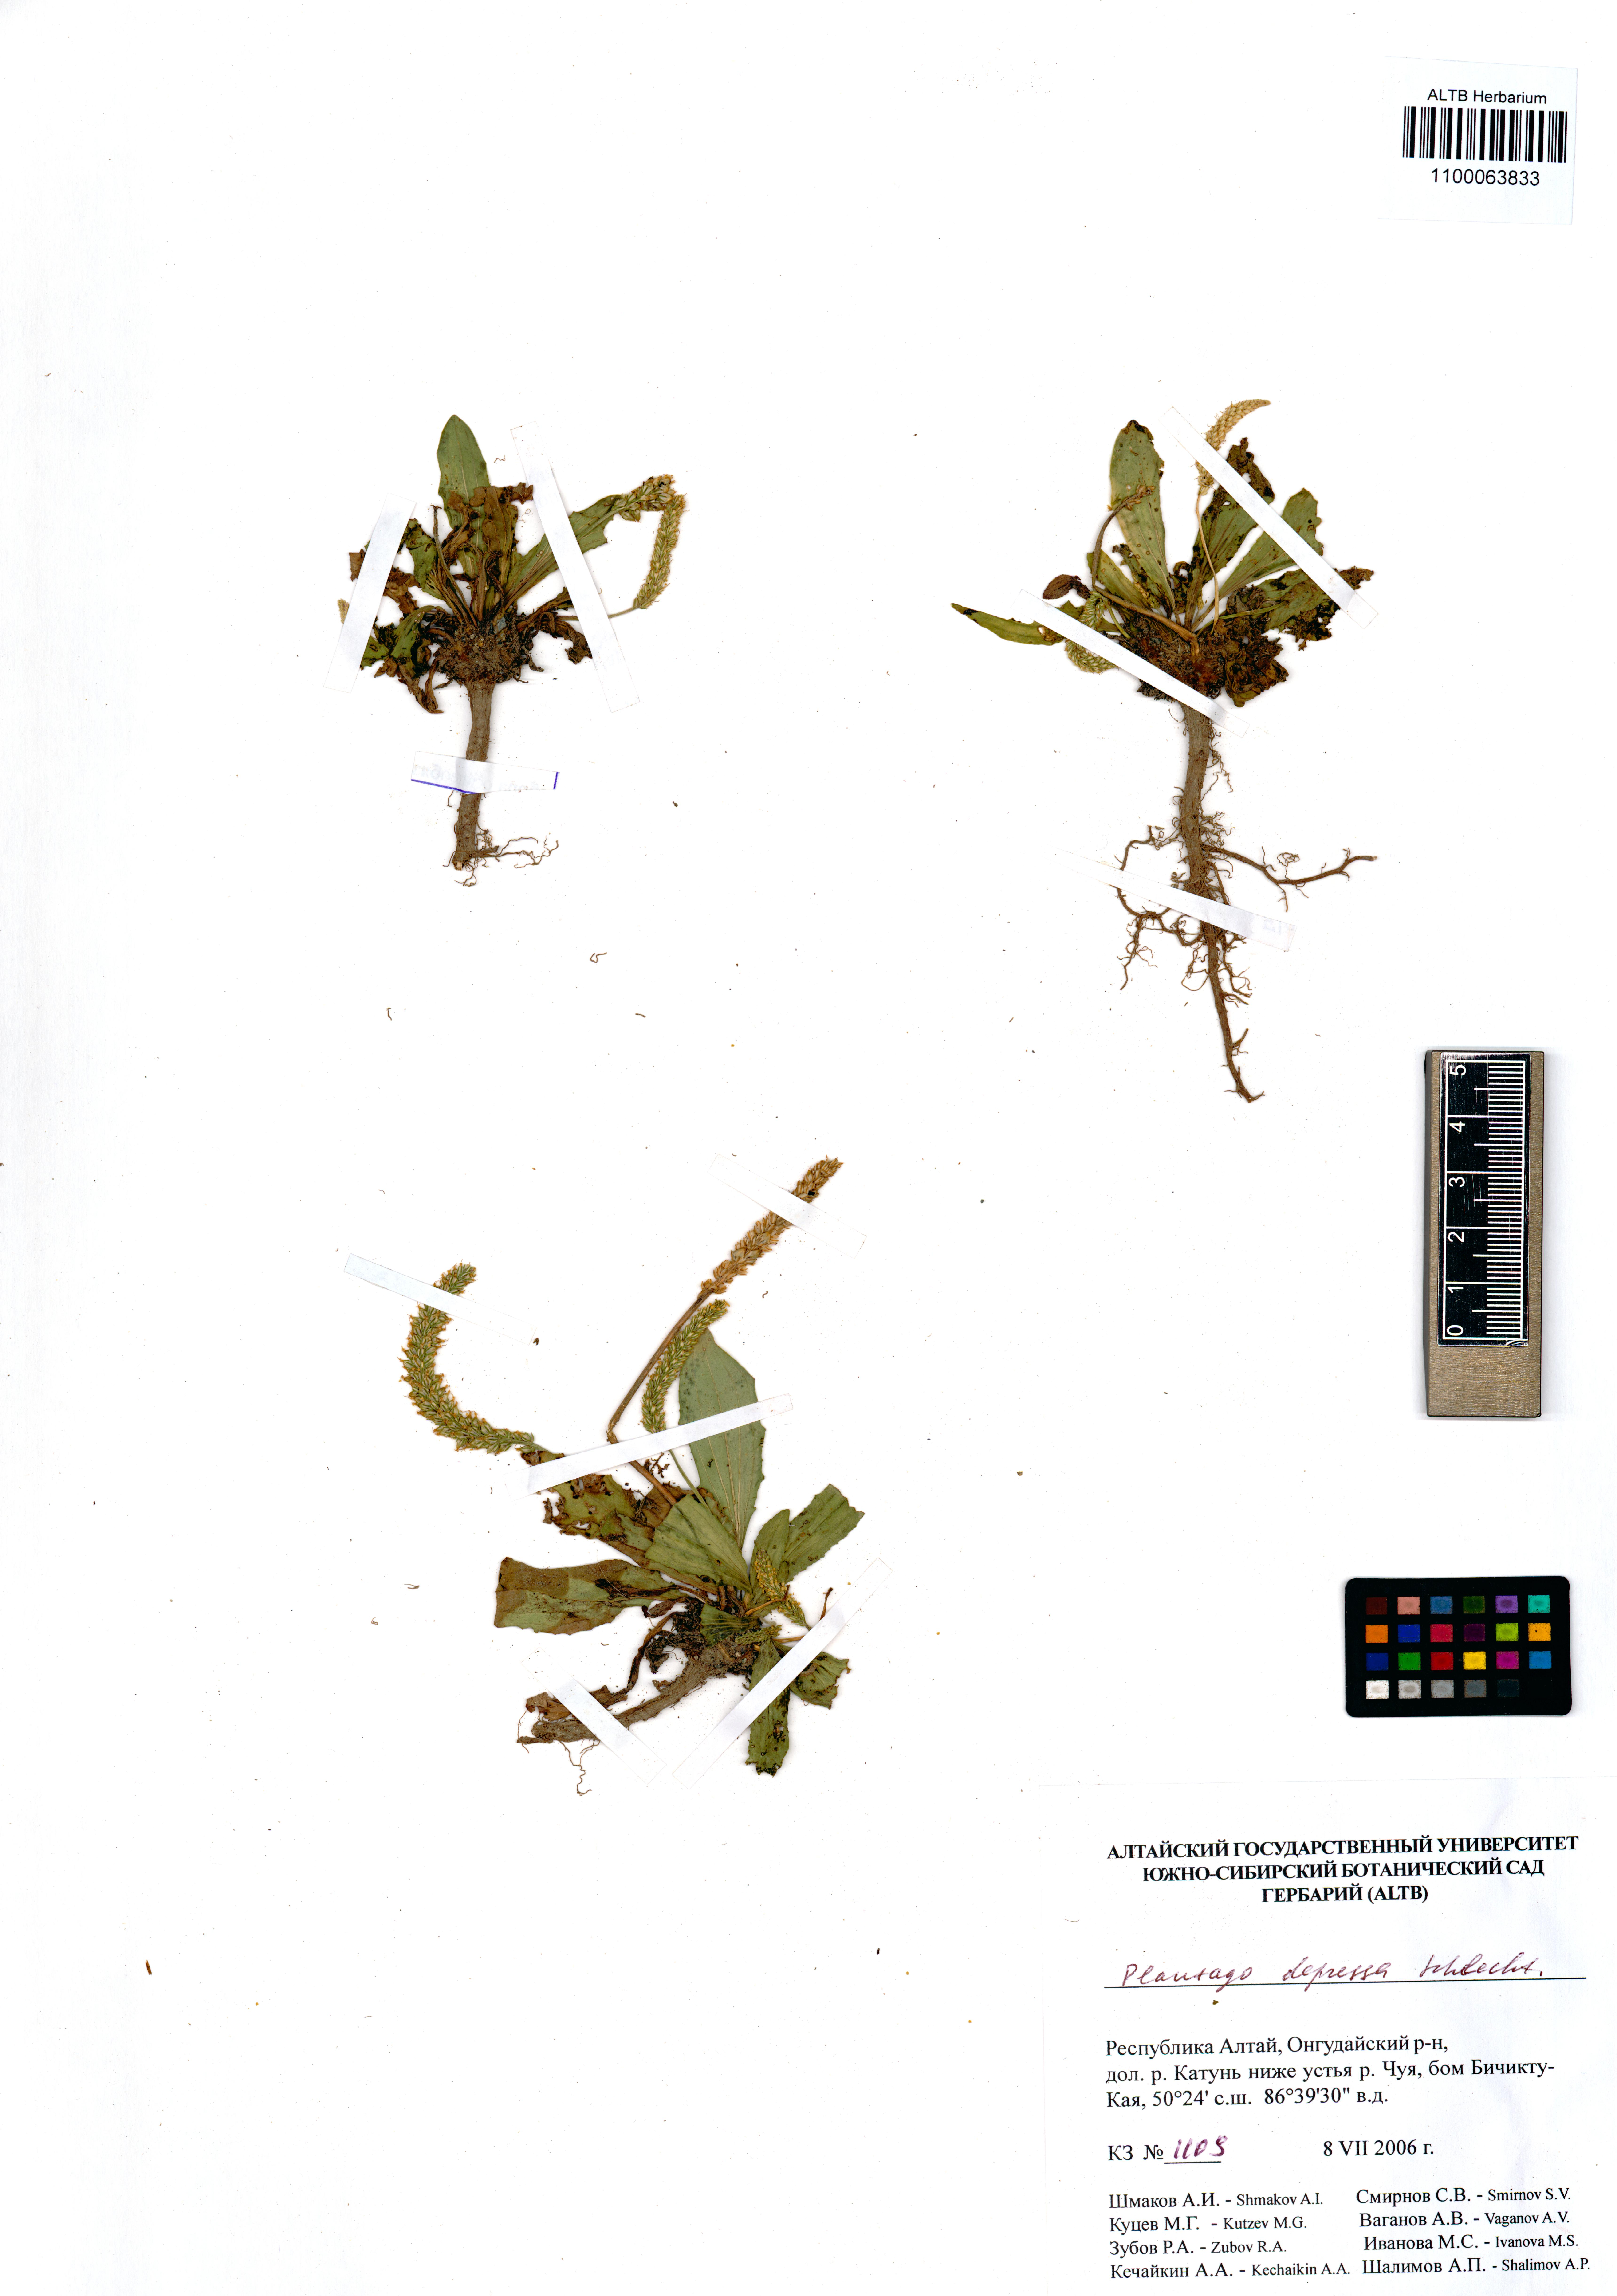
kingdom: Plantae
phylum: Tracheophyta
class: Magnoliopsida
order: Lamiales
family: Plantaginaceae
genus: Plantago
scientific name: Plantago depressa
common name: Depressed plantain
